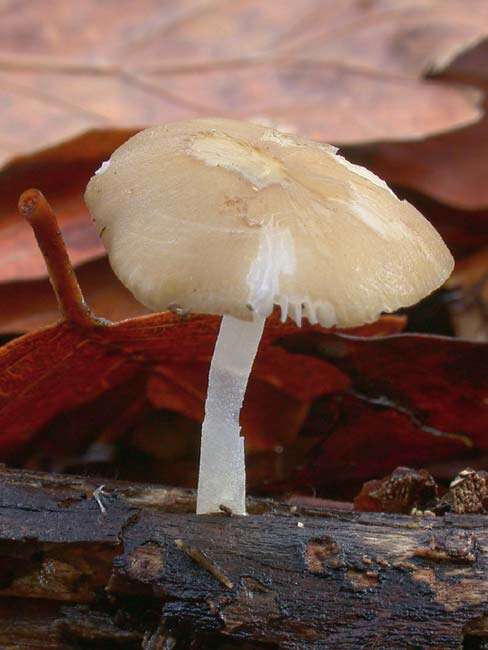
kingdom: Fungi
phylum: Basidiomycota
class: Agaricomycetes
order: Agaricales
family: Porotheleaceae
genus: Hydropodia
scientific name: Hydropodia subalpina
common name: vår-fnugfod
